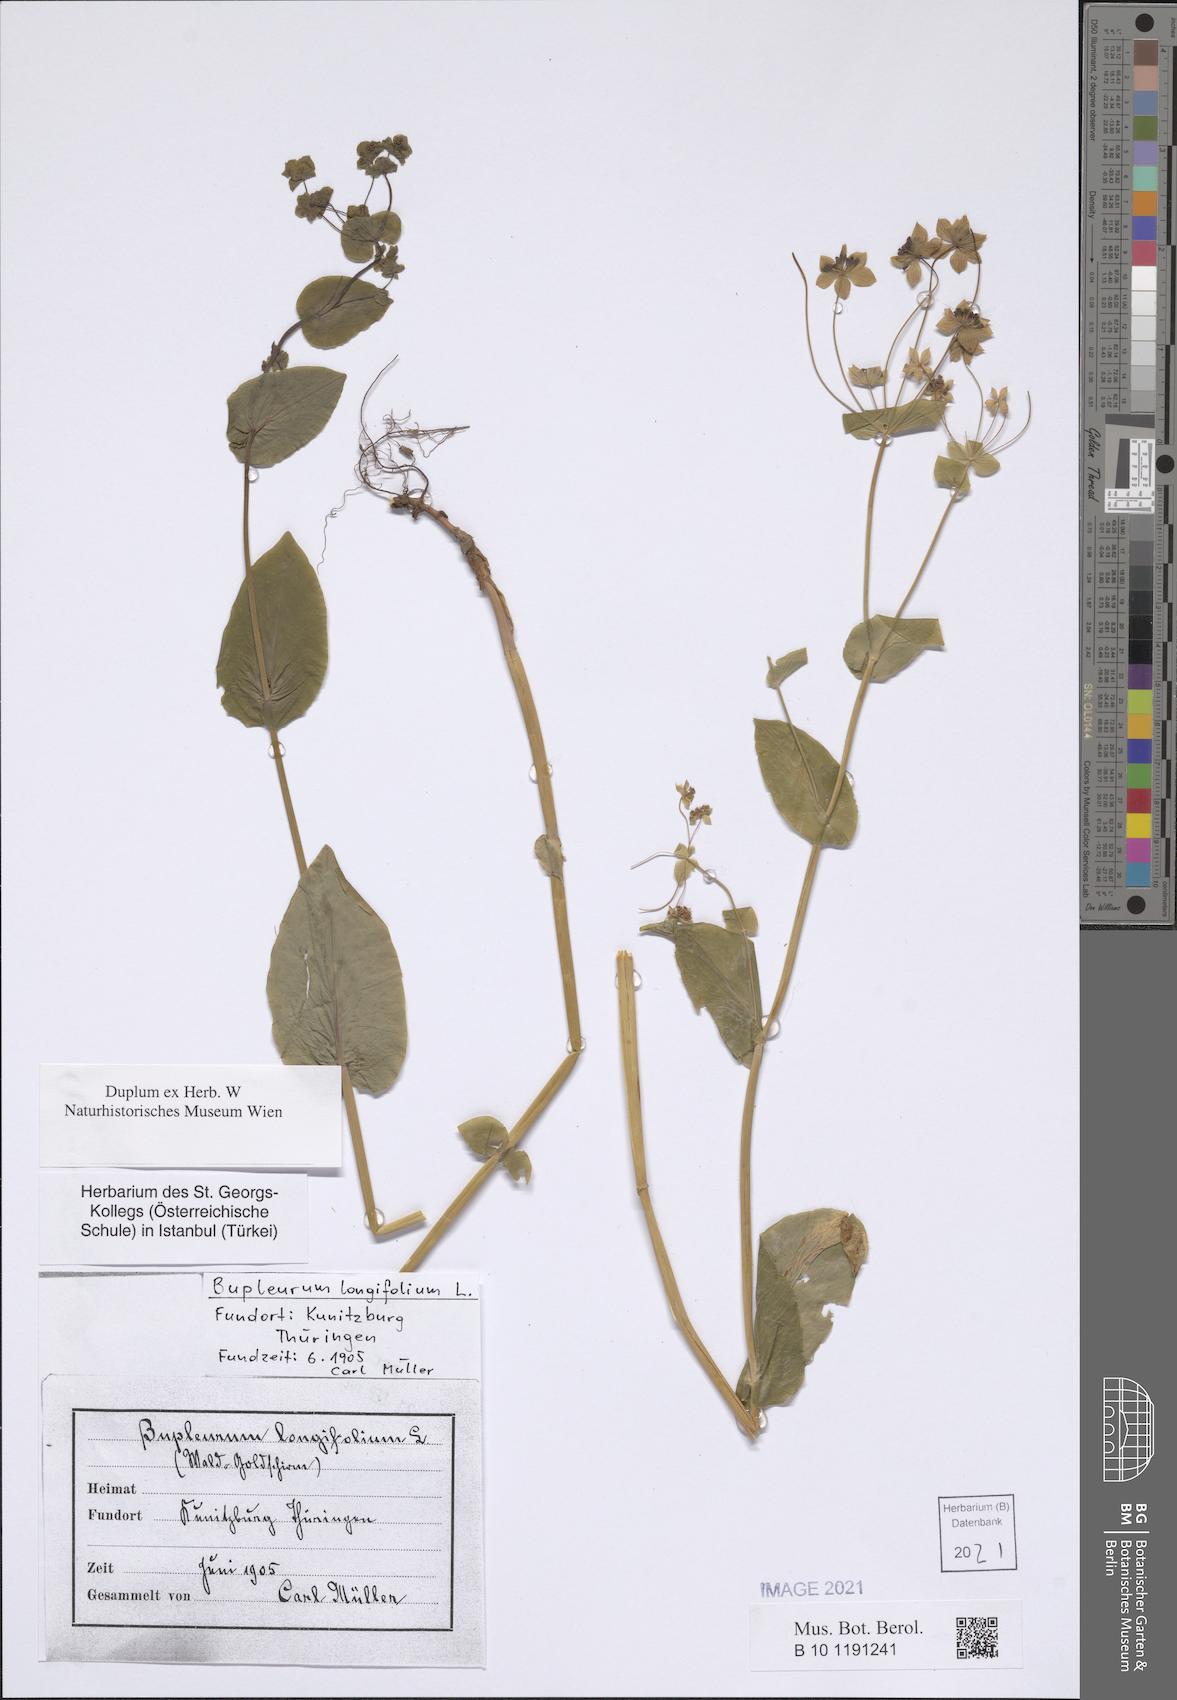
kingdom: Plantae
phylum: Tracheophyta
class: Magnoliopsida
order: Apiales
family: Apiaceae
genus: Bupleurum
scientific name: Bupleurum longifolium
